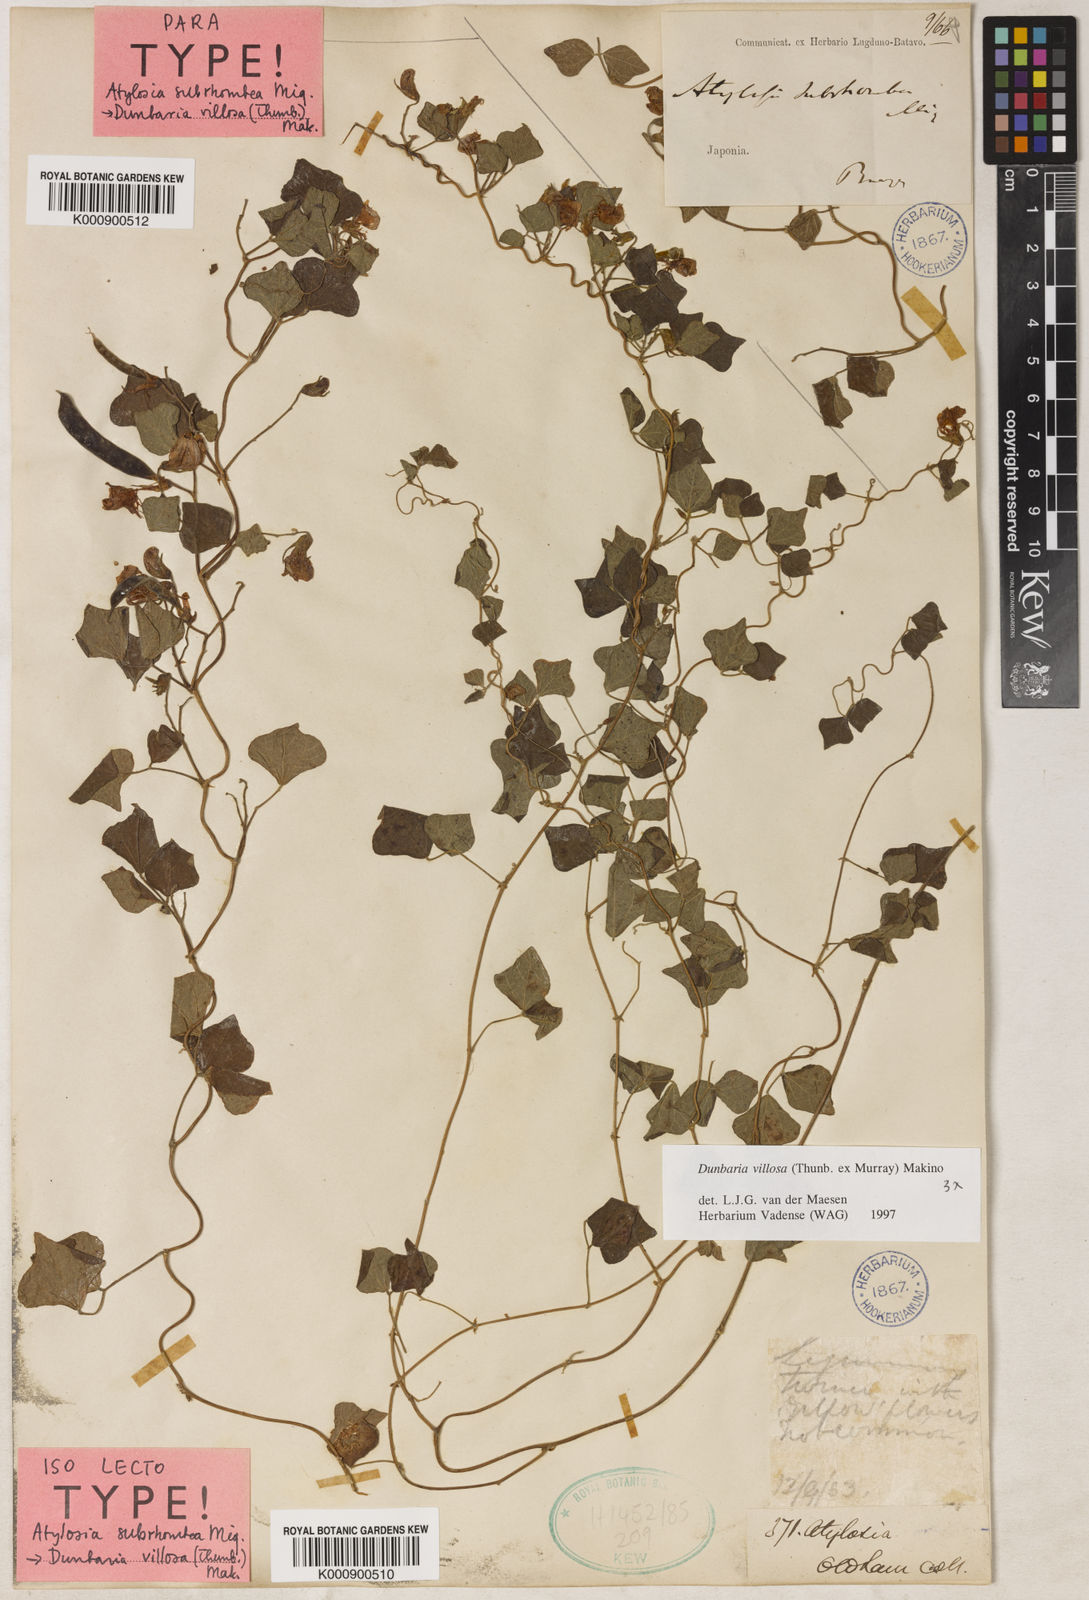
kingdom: Plantae
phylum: Tracheophyta
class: Magnoliopsida
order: Fabales
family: Fabaceae
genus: Dunbaria
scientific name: Dunbaria villosa
